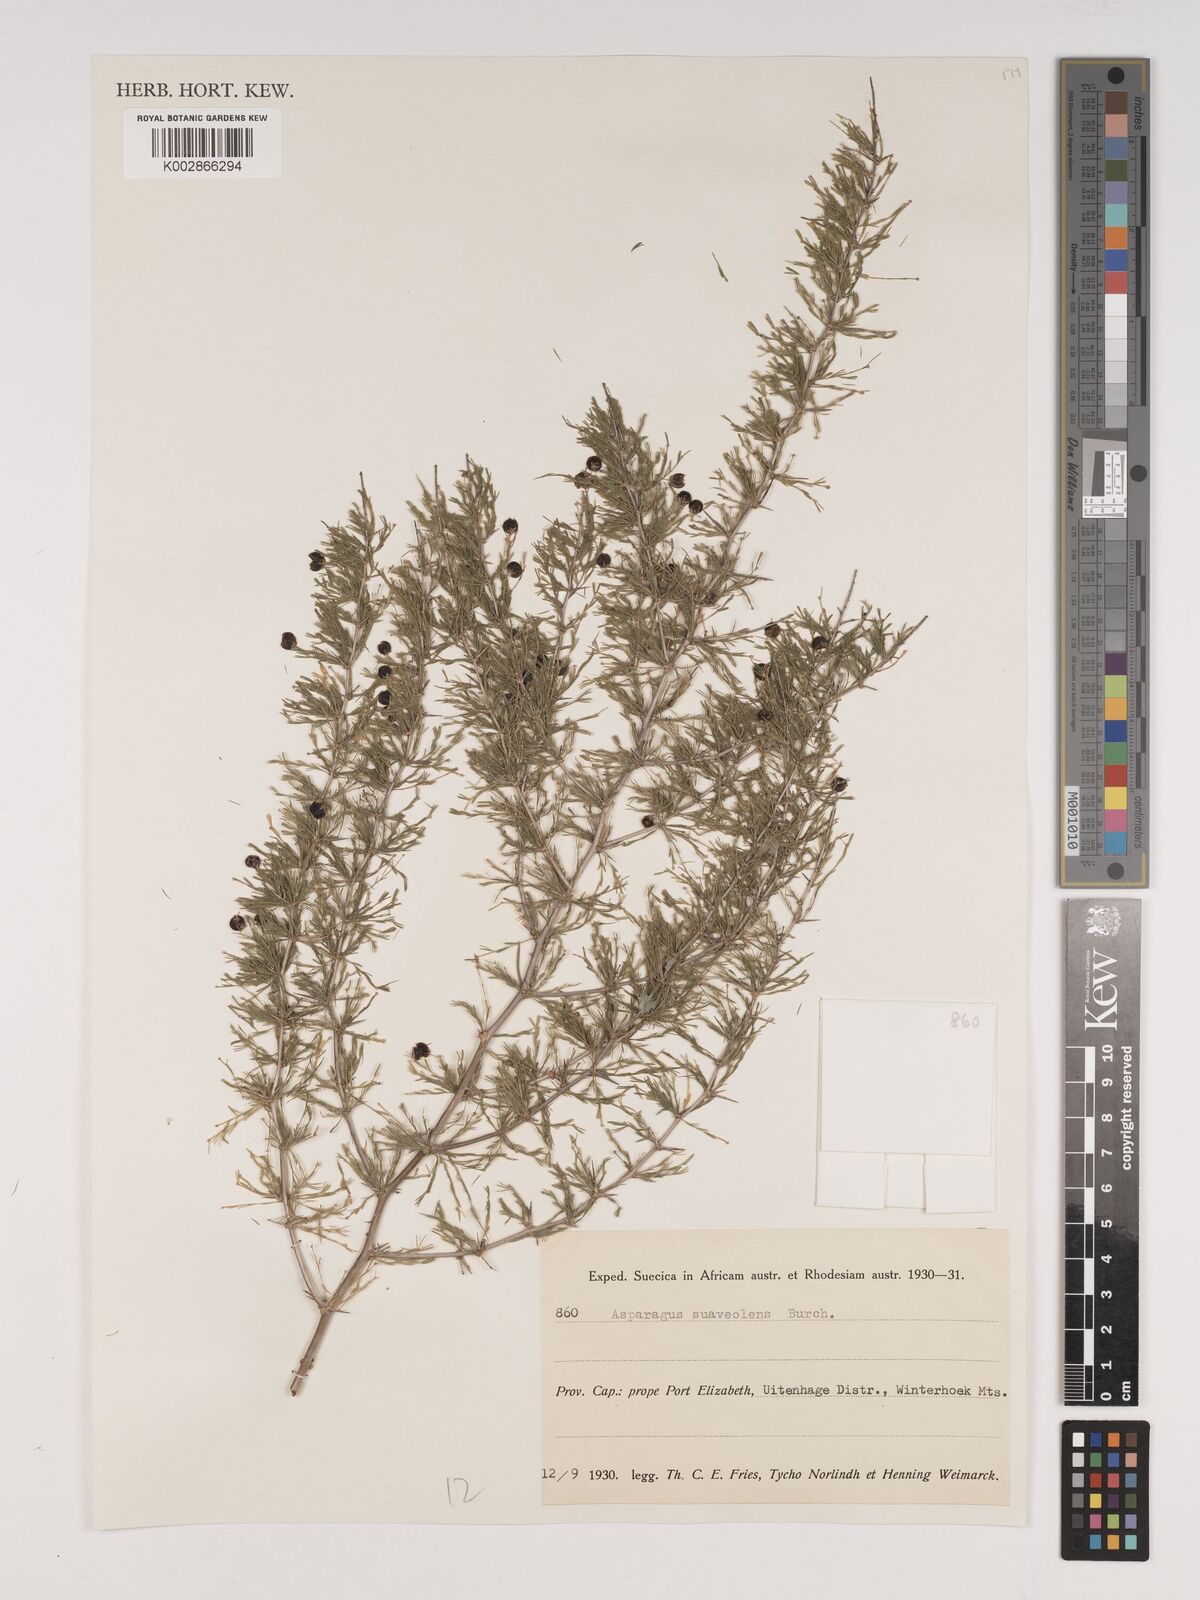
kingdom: Plantae
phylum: Tracheophyta
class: Liliopsida
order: Asparagales
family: Asparagaceae
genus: Asparagus
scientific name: Asparagus suaveolens
